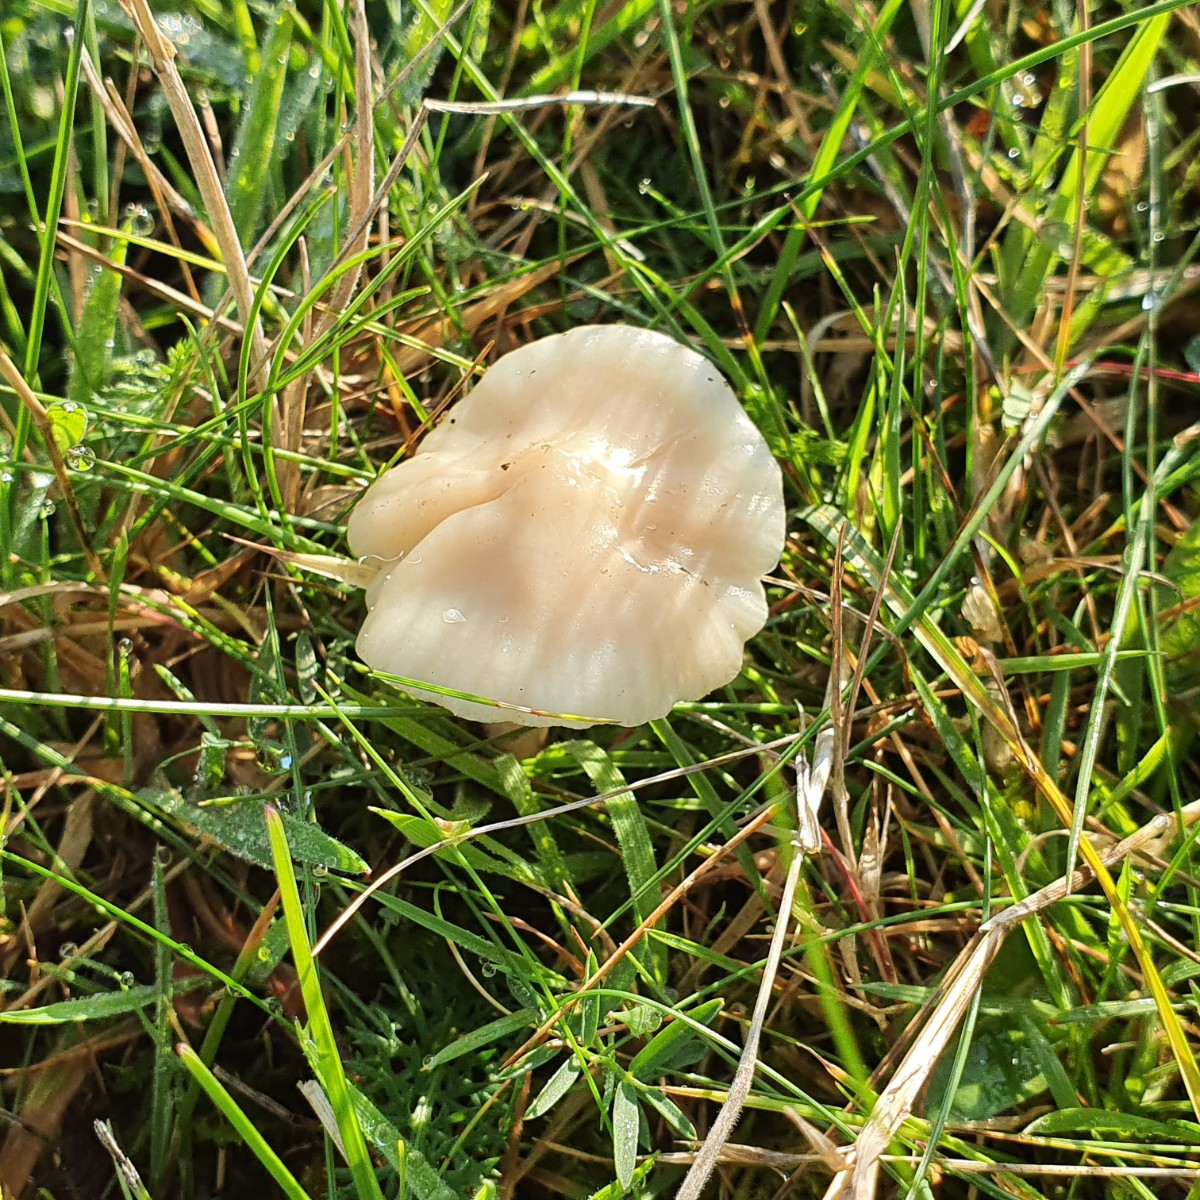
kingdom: Fungi
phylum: Basidiomycota
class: Agaricomycetes
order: Agaricales
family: Hygrophoraceae
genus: Cuphophyllus
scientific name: Cuphophyllus
